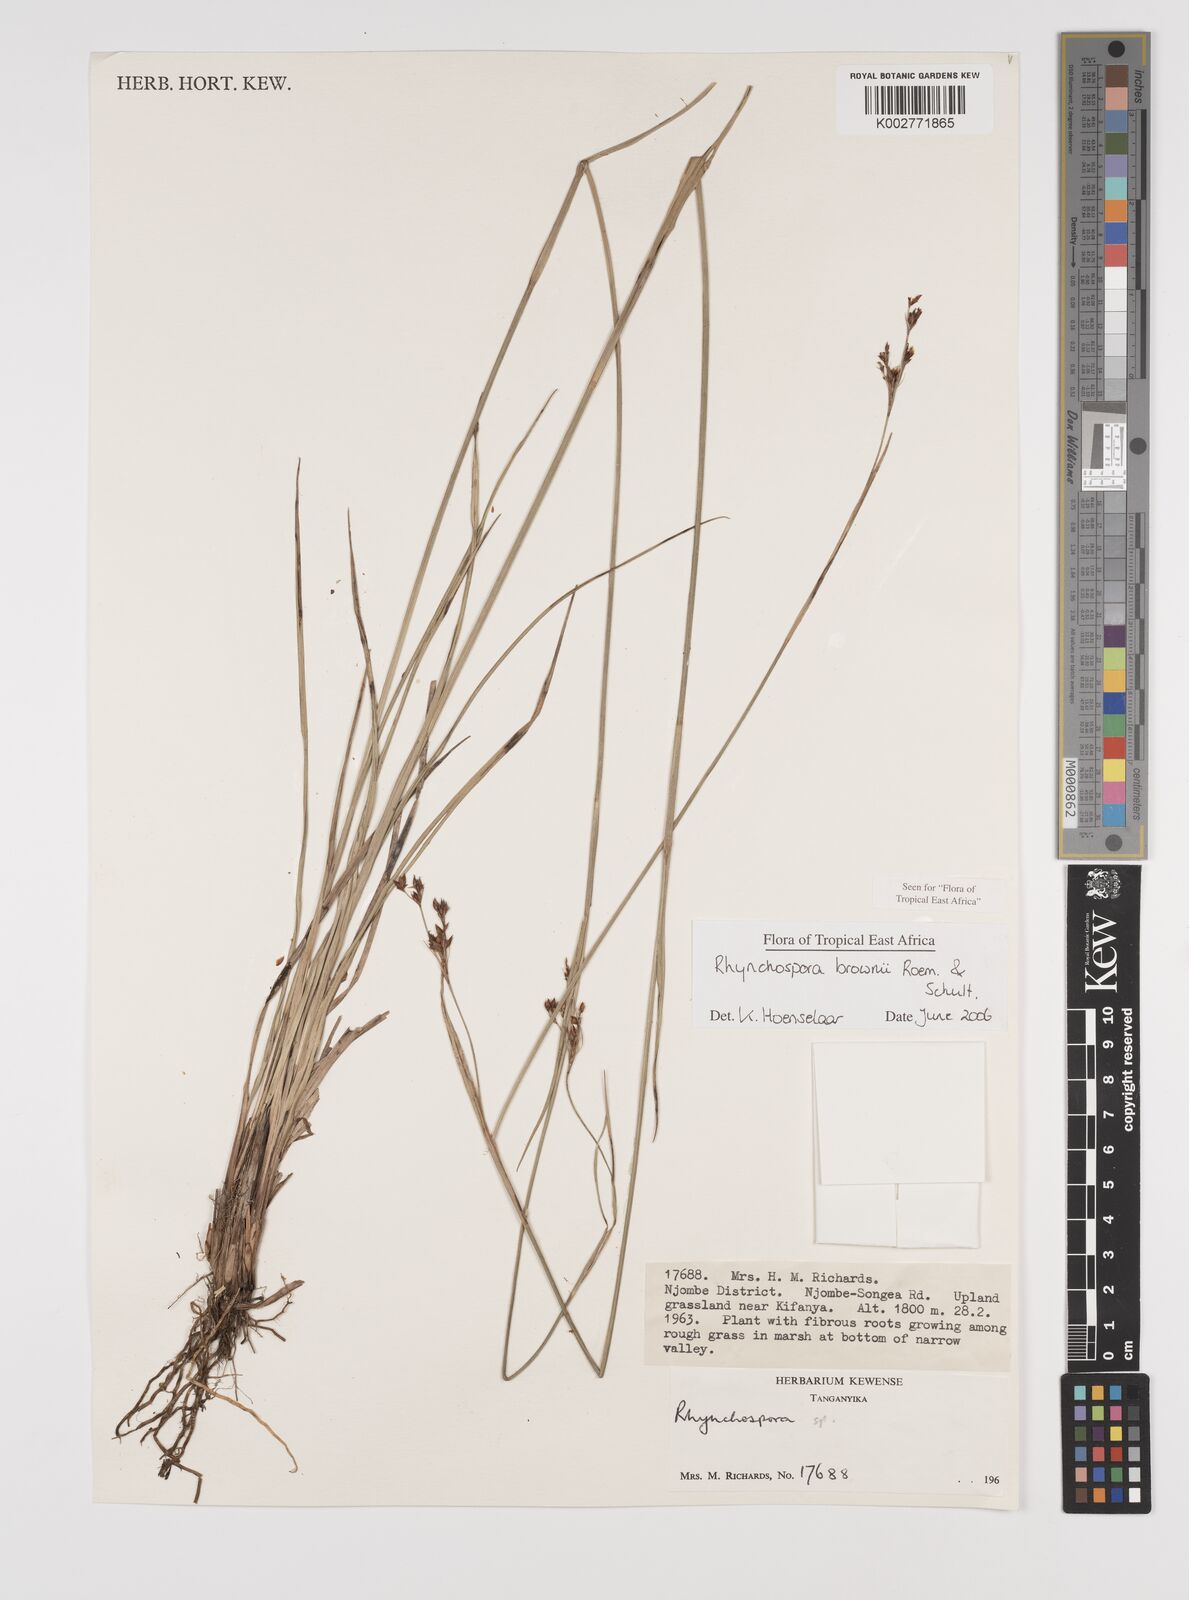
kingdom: Plantae
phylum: Tracheophyta
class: Liliopsida
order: Poales
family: Cyperaceae
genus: Rhynchospora
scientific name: Rhynchospora brownii
